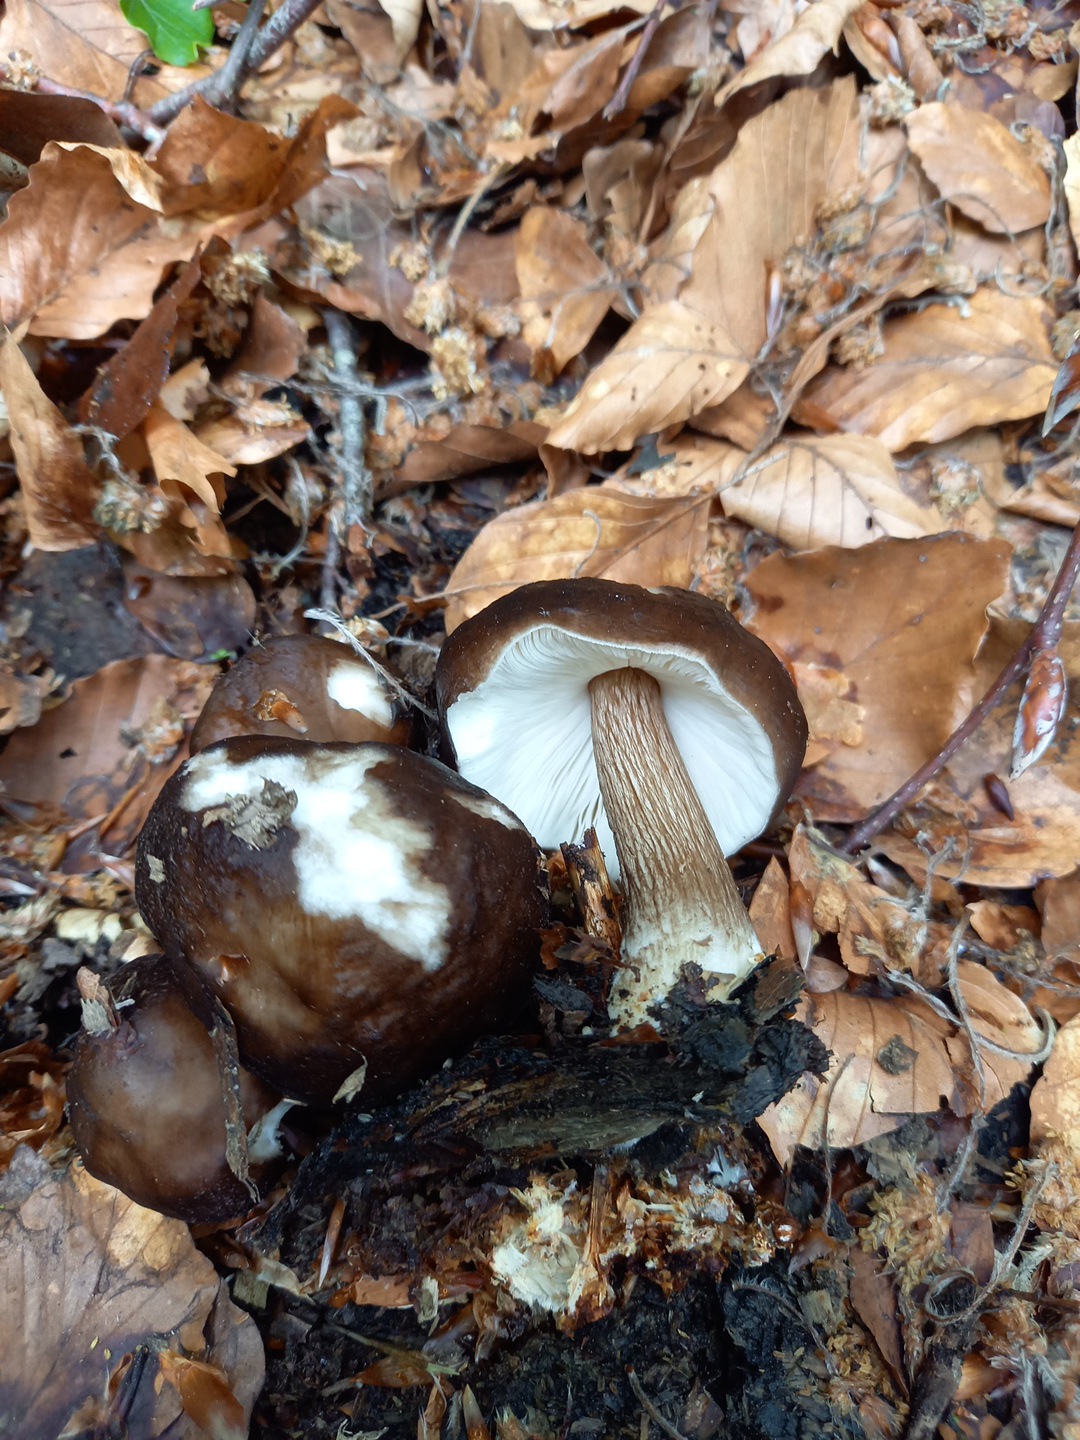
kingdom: Fungi
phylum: Basidiomycota
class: Agaricomycetes
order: Agaricales
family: Pluteaceae
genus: Pluteus
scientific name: Pluteus cervinus
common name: sodfarvet skærmhat
